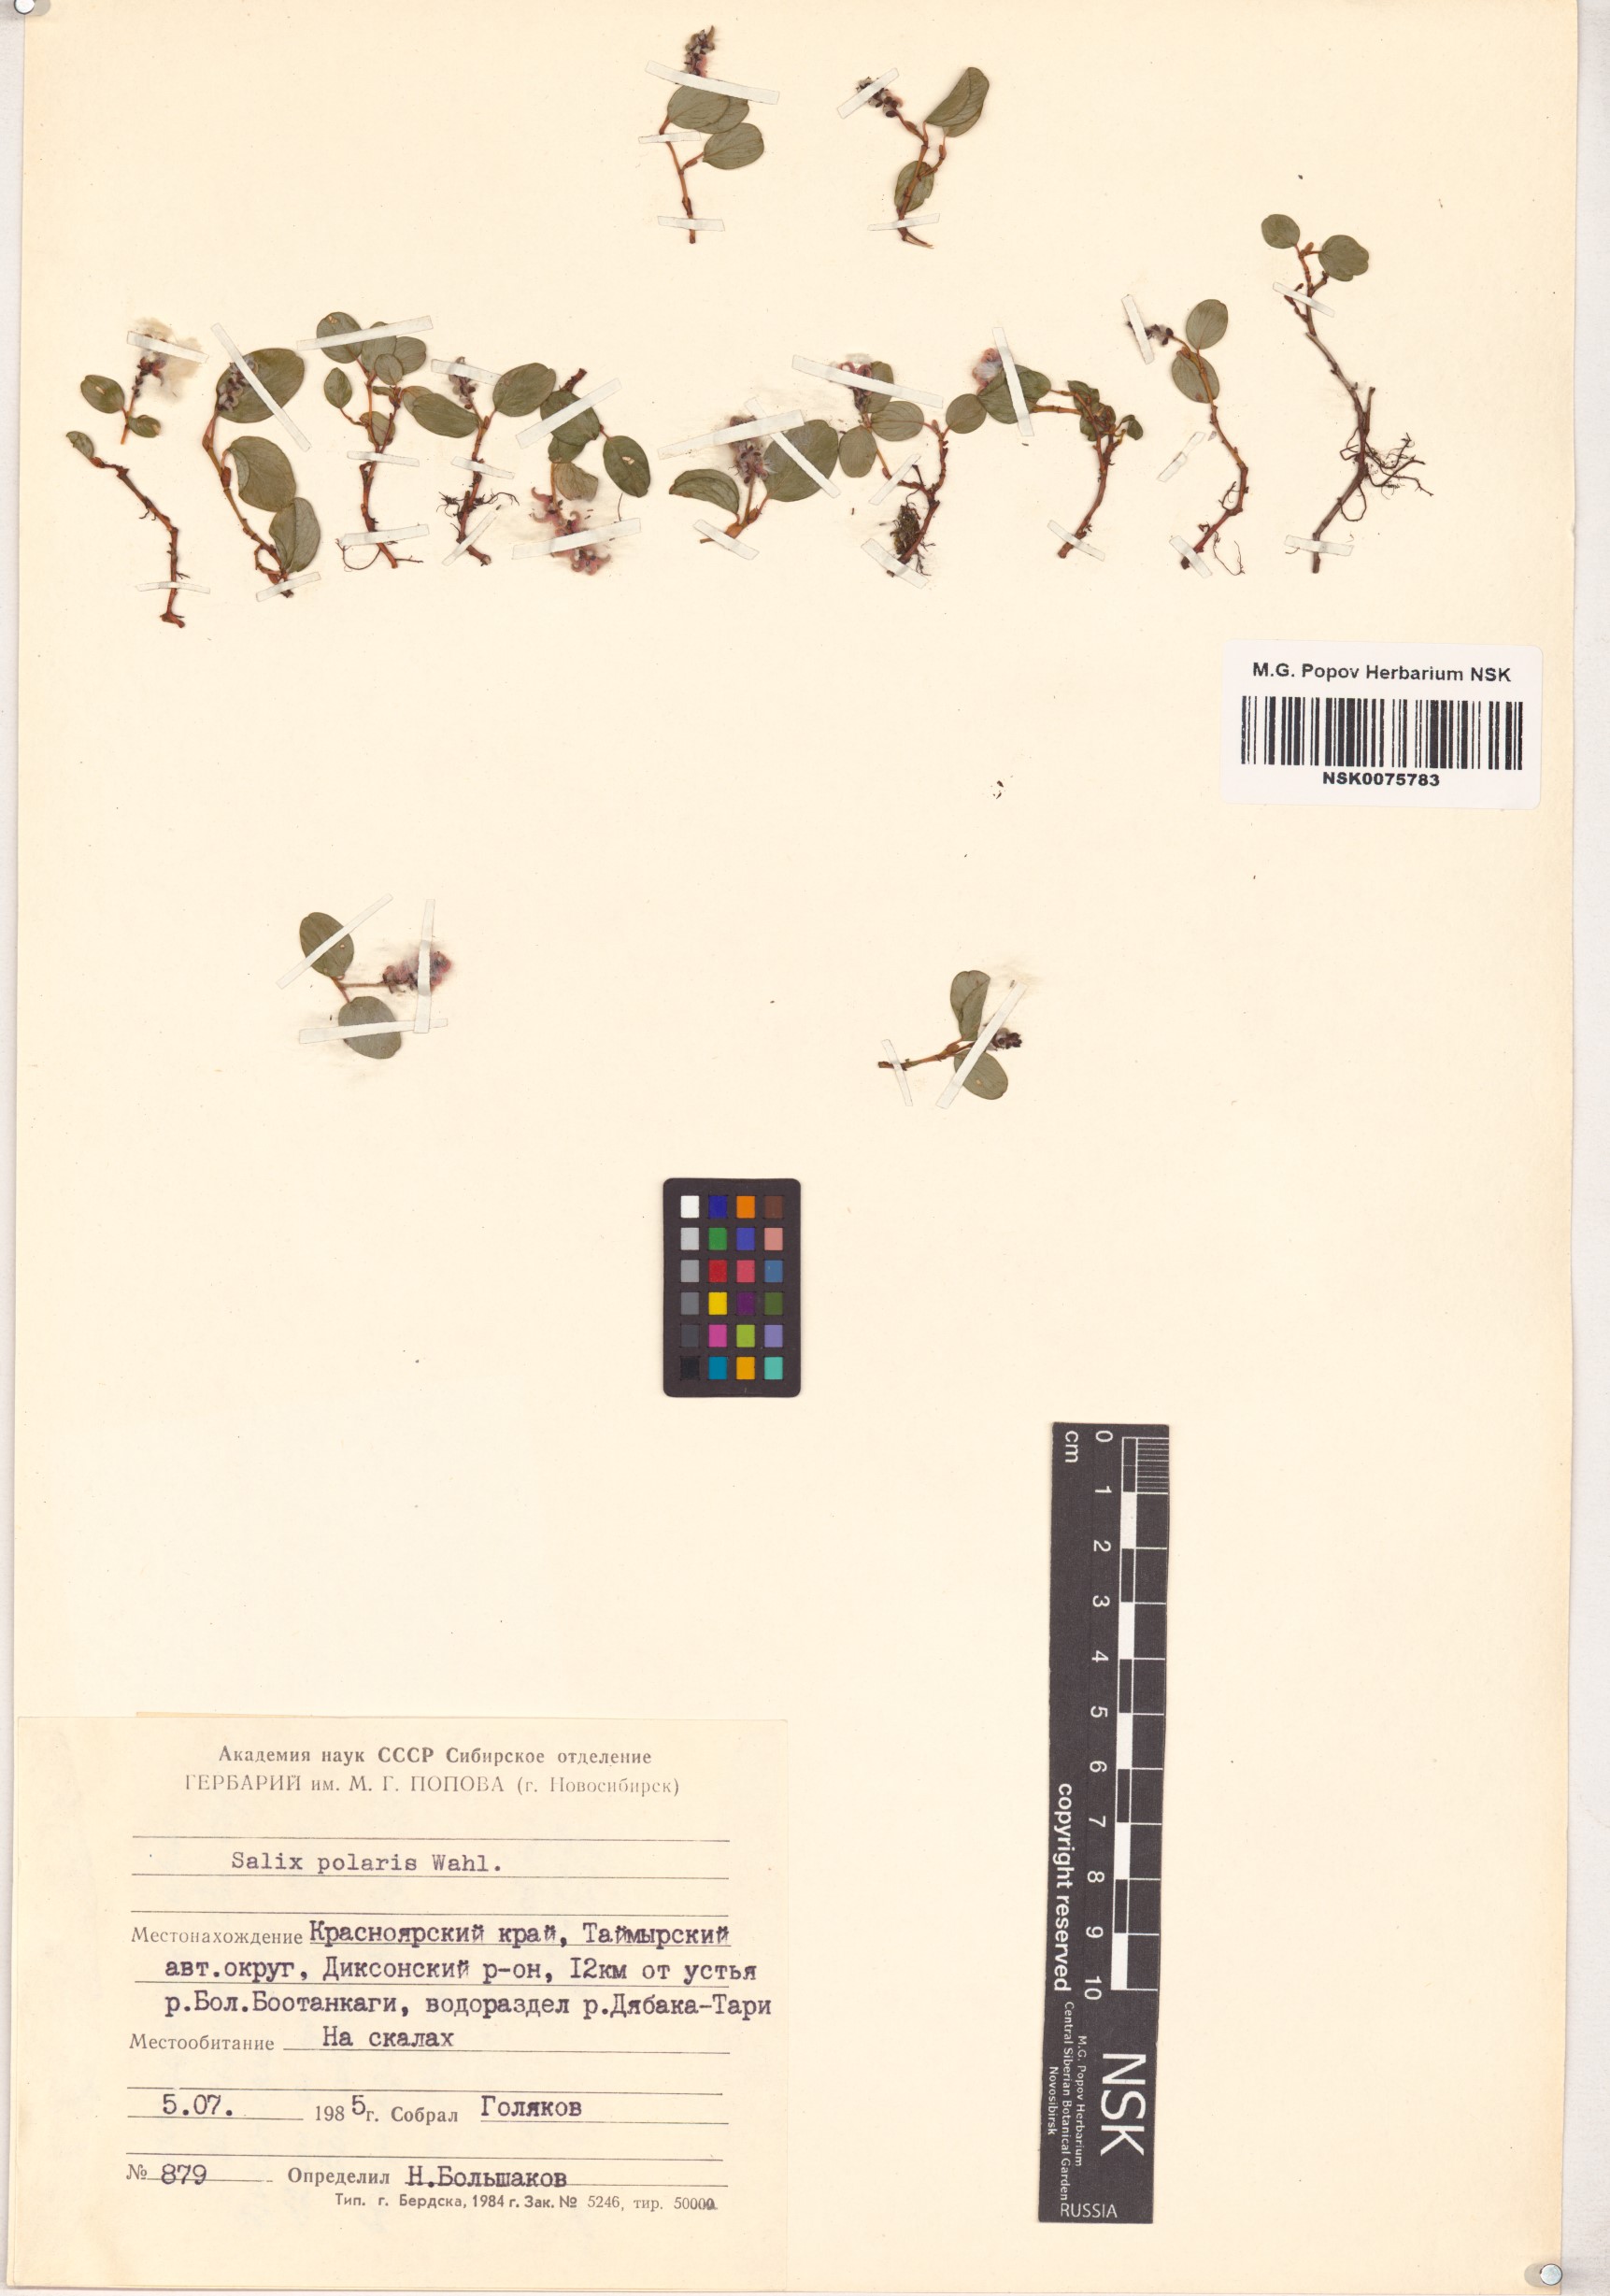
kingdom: Plantae
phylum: Tracheophyta
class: Magnoliopsida
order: Malpighiales
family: Salicaceae
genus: Salix
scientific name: Salix polaris
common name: Polar willow
